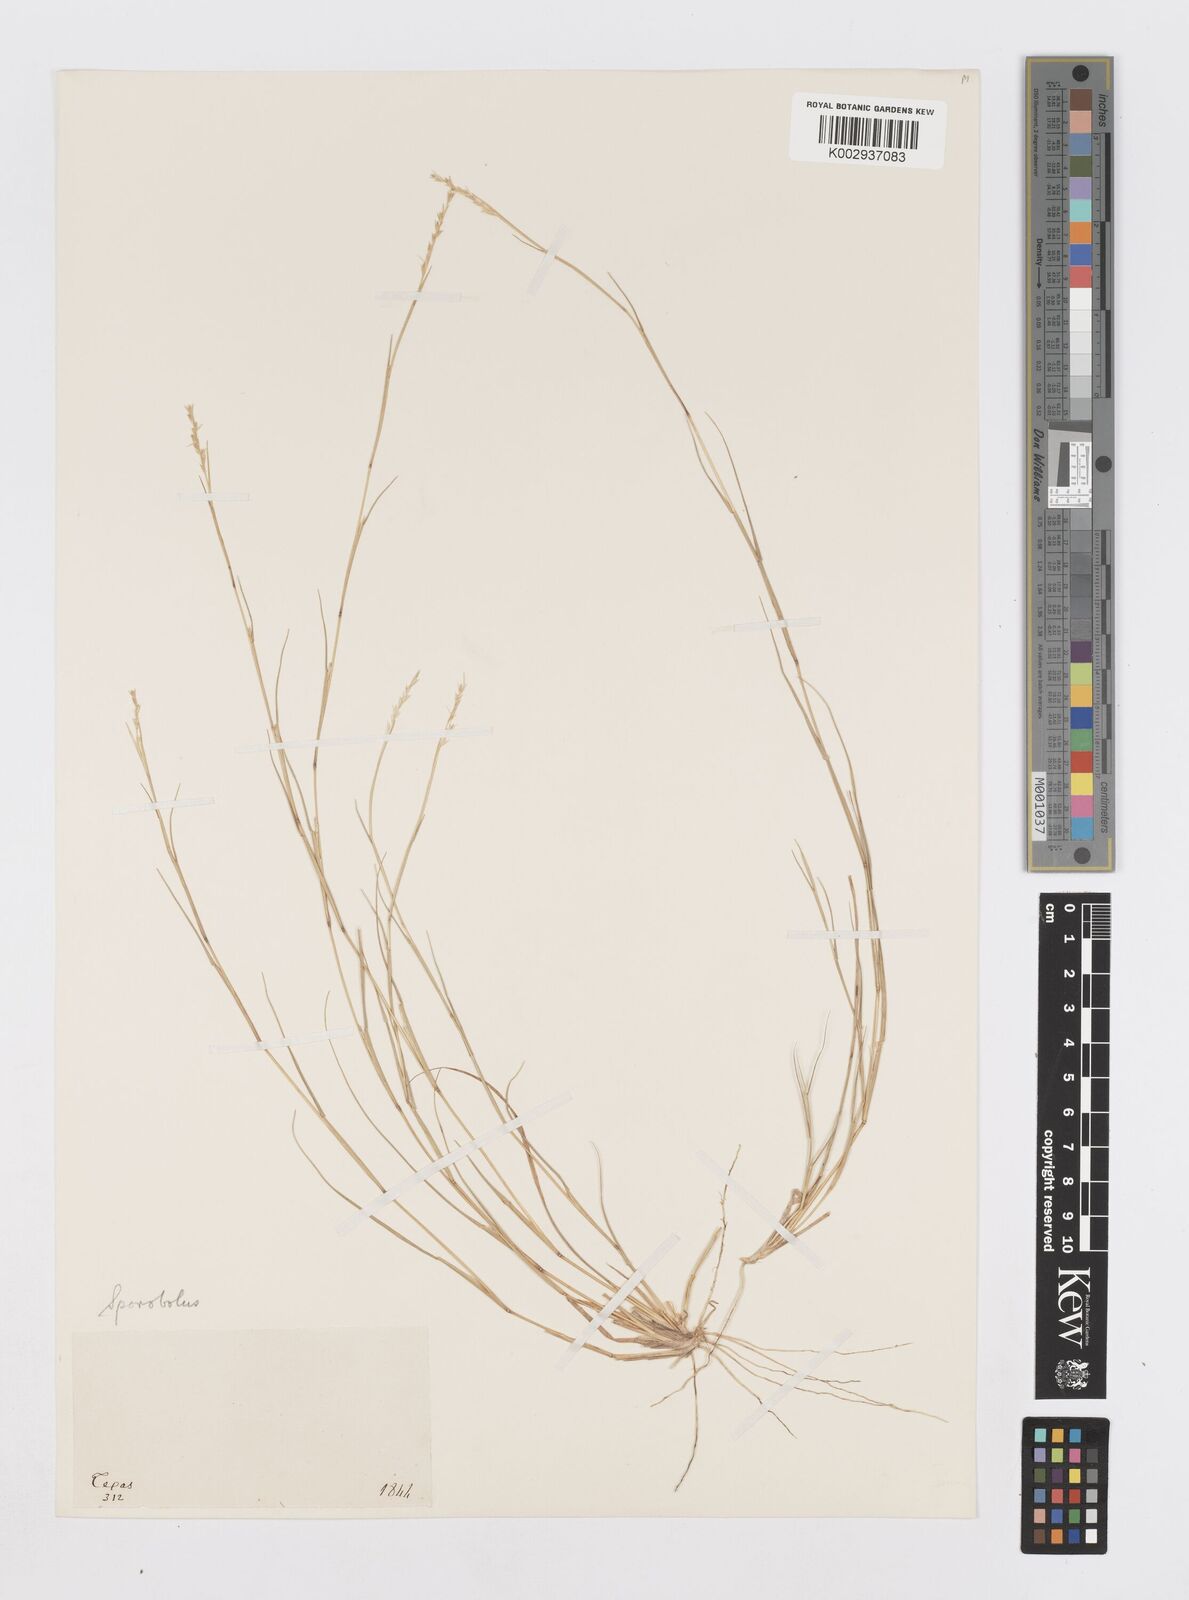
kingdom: Plantae
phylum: Tracheophyta
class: Liliopsida
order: Poales
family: Poaceae
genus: Sporobolus
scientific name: Sporobolus vaginiflorus
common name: Poverty dropseed
